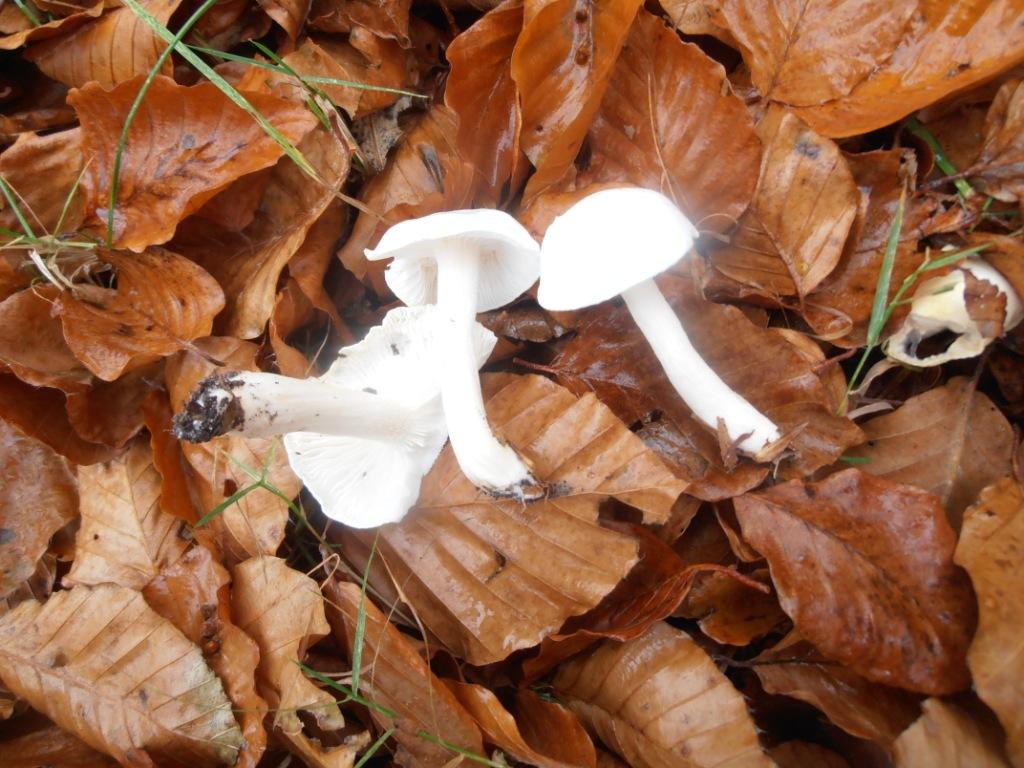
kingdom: Fungi
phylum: Basidiomycota
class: Agaricomycetes
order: Agaricales
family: Hygrophoraceae
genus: Hygrophorus
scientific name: Hygrophorus eburneus
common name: elfenbens-sneglehat
